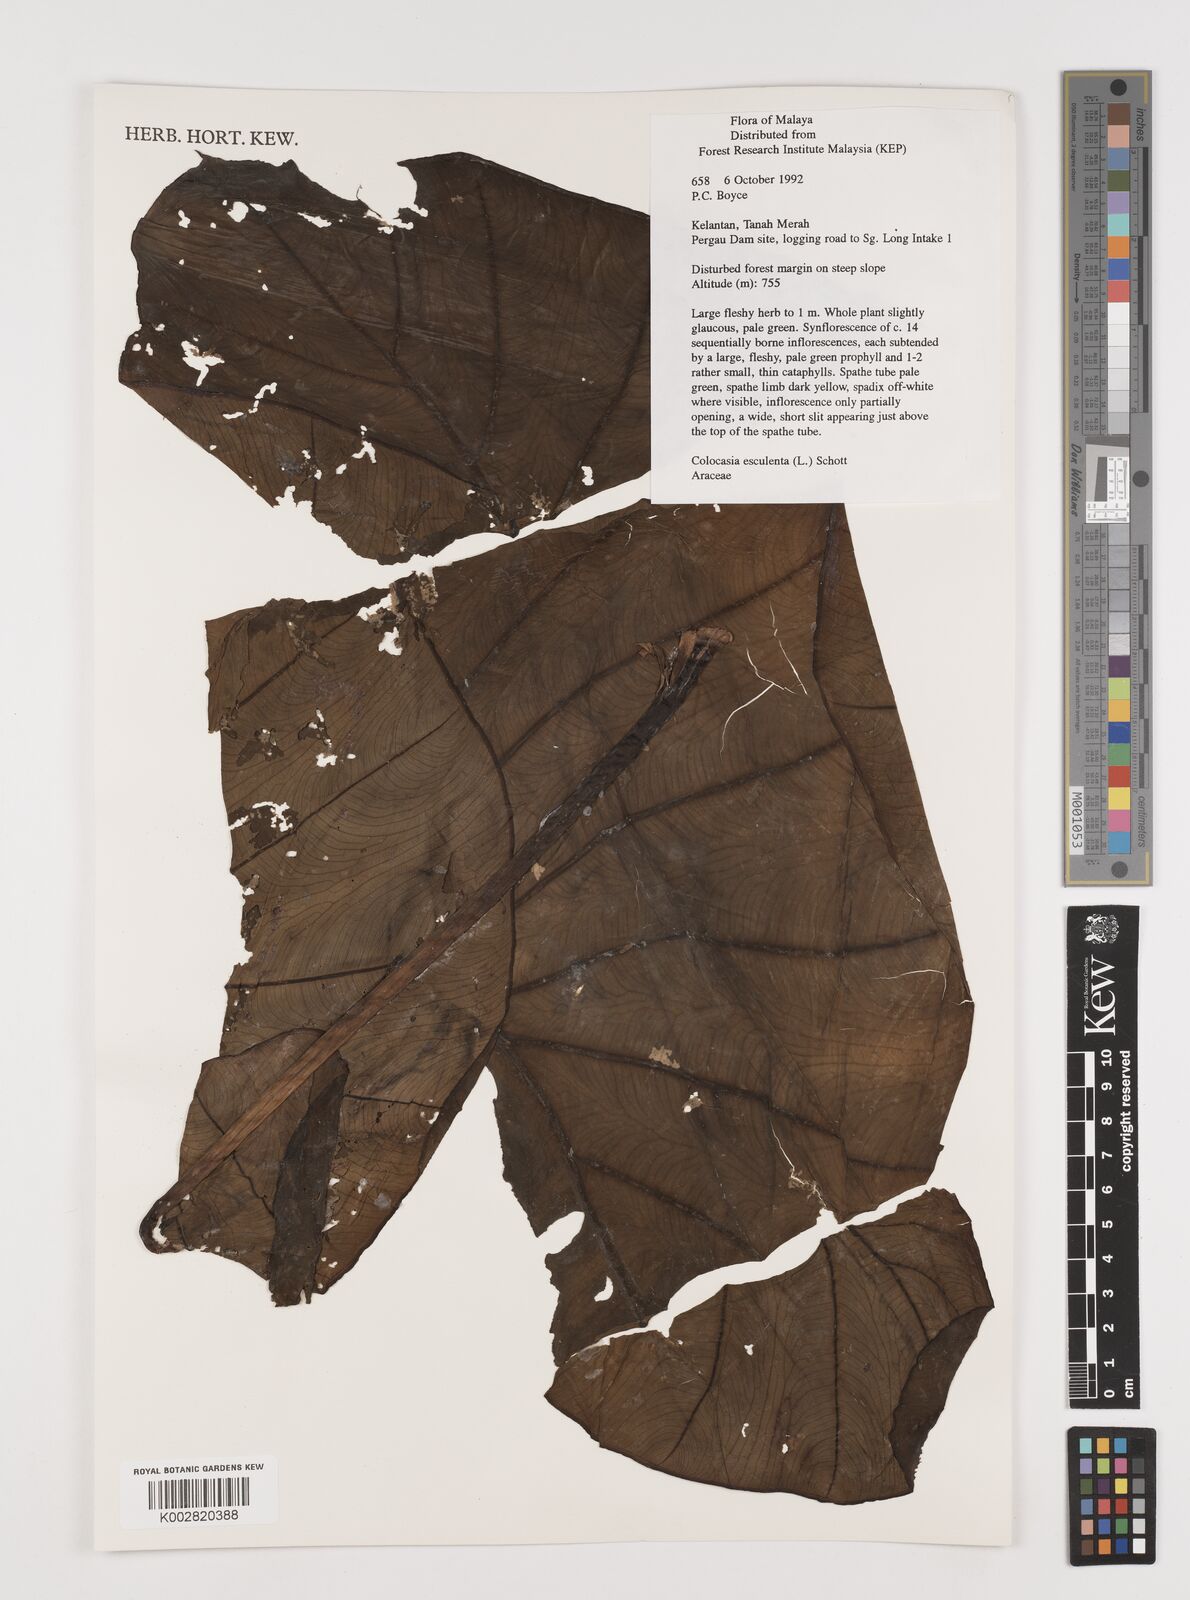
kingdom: Plantae
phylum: Tracheophyta
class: Liliopsida
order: Alismatales
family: Araceae
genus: Colocasia
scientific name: Colocasia esculenta
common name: Taro
